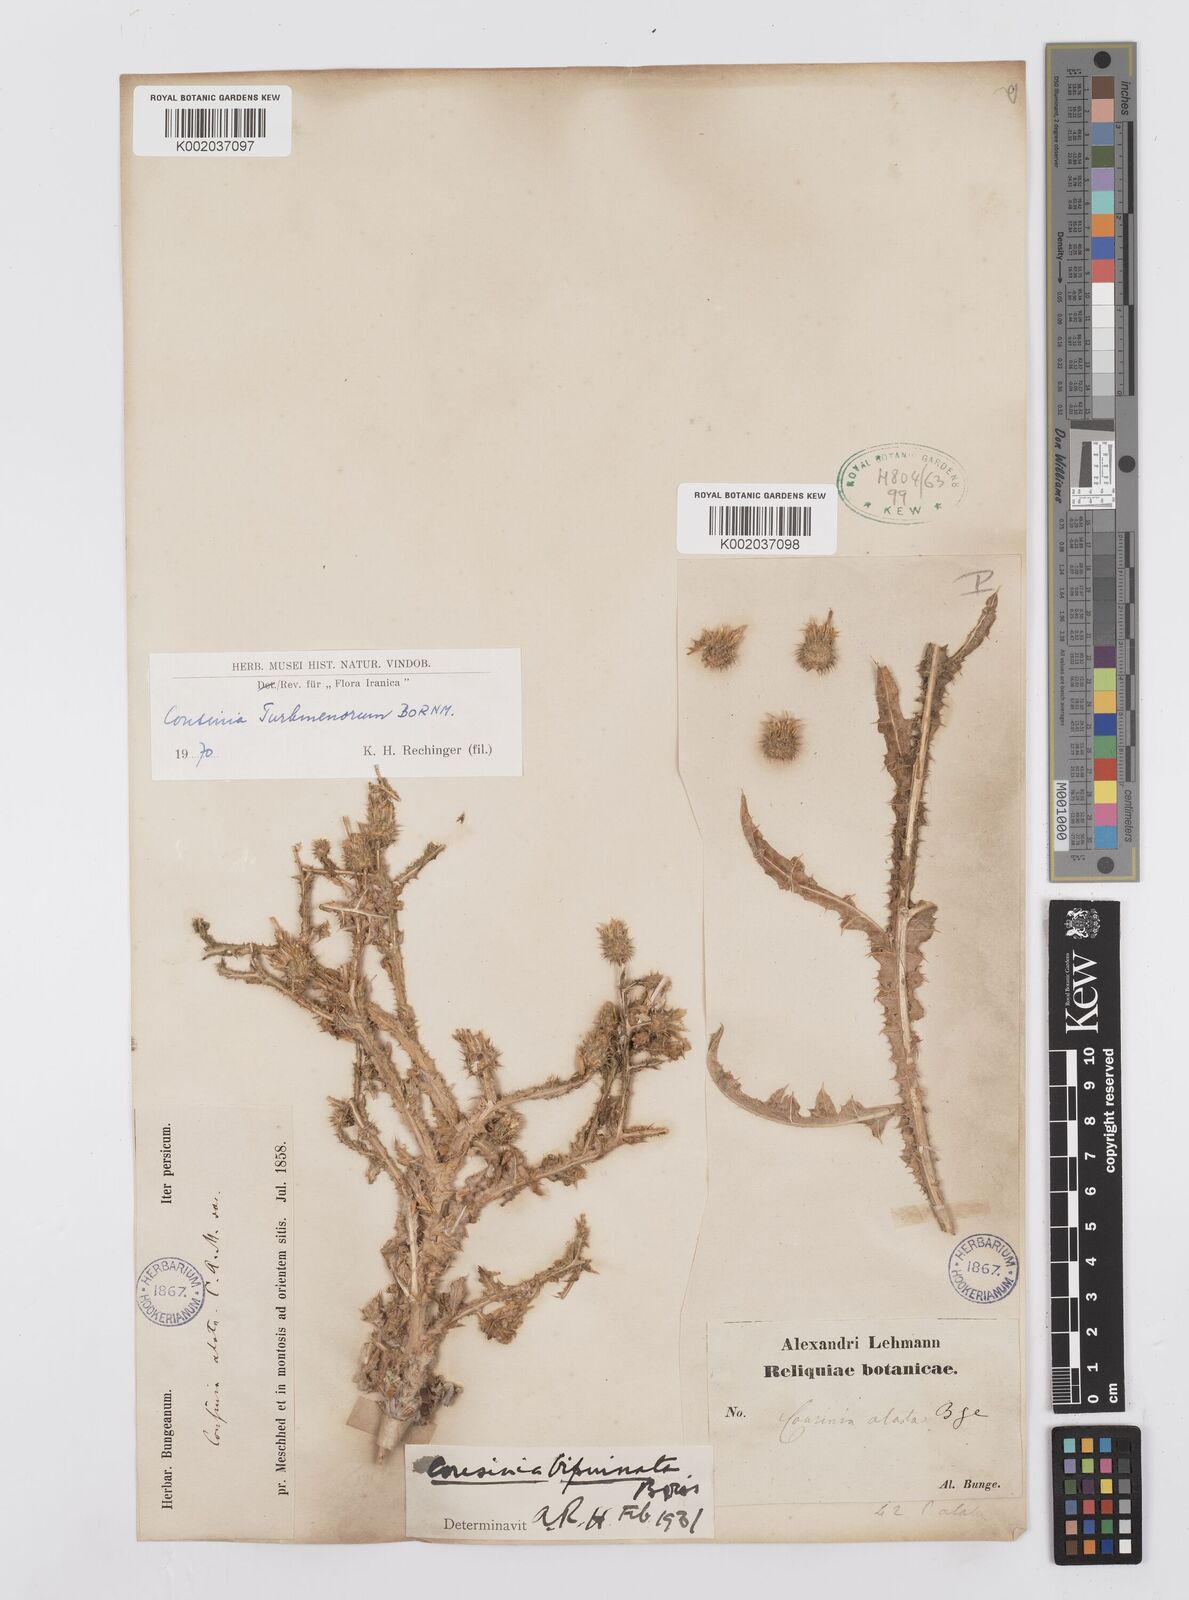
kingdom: Plantae
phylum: Tracheophyta
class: Magnoliopsida
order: Asterales
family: Asteraceae
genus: Cousinia
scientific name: Cousinia turkmenorum
